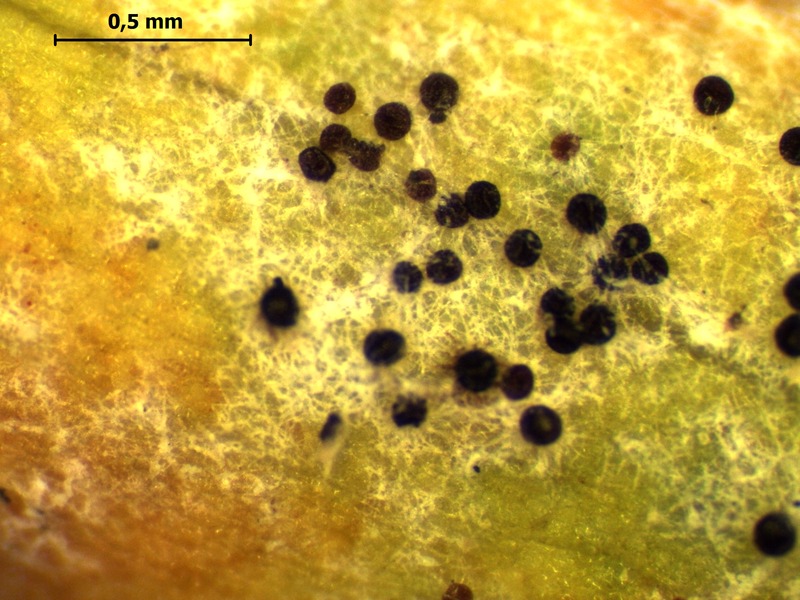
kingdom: Fungi
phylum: Ascomycota
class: Leotiomycetes
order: Helotiales
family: Erysiphaceae
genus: Erysiphe
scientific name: Erysiphe polygoni
